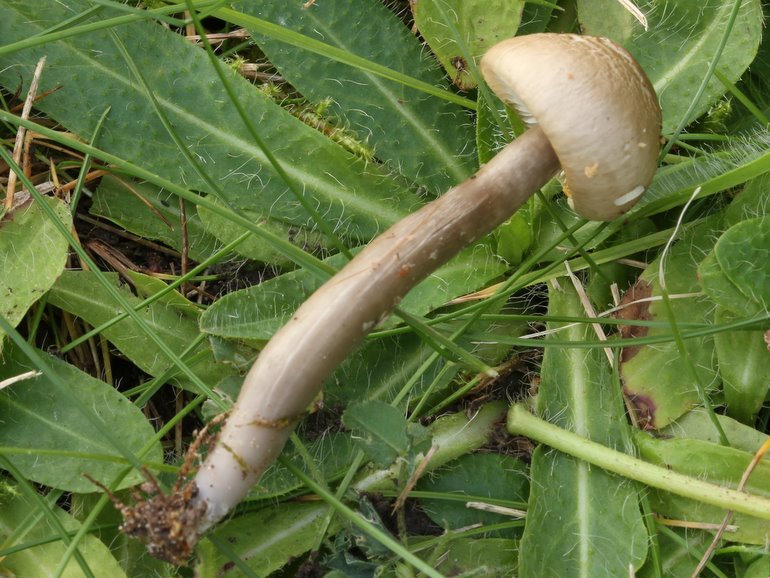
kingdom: Fungi
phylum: Basidiomycota
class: Agaricomycetes
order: Agaricales
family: Hygrophoraceae
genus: Gliophorus
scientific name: Gliophorus irrigatus
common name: slimet vokshat
